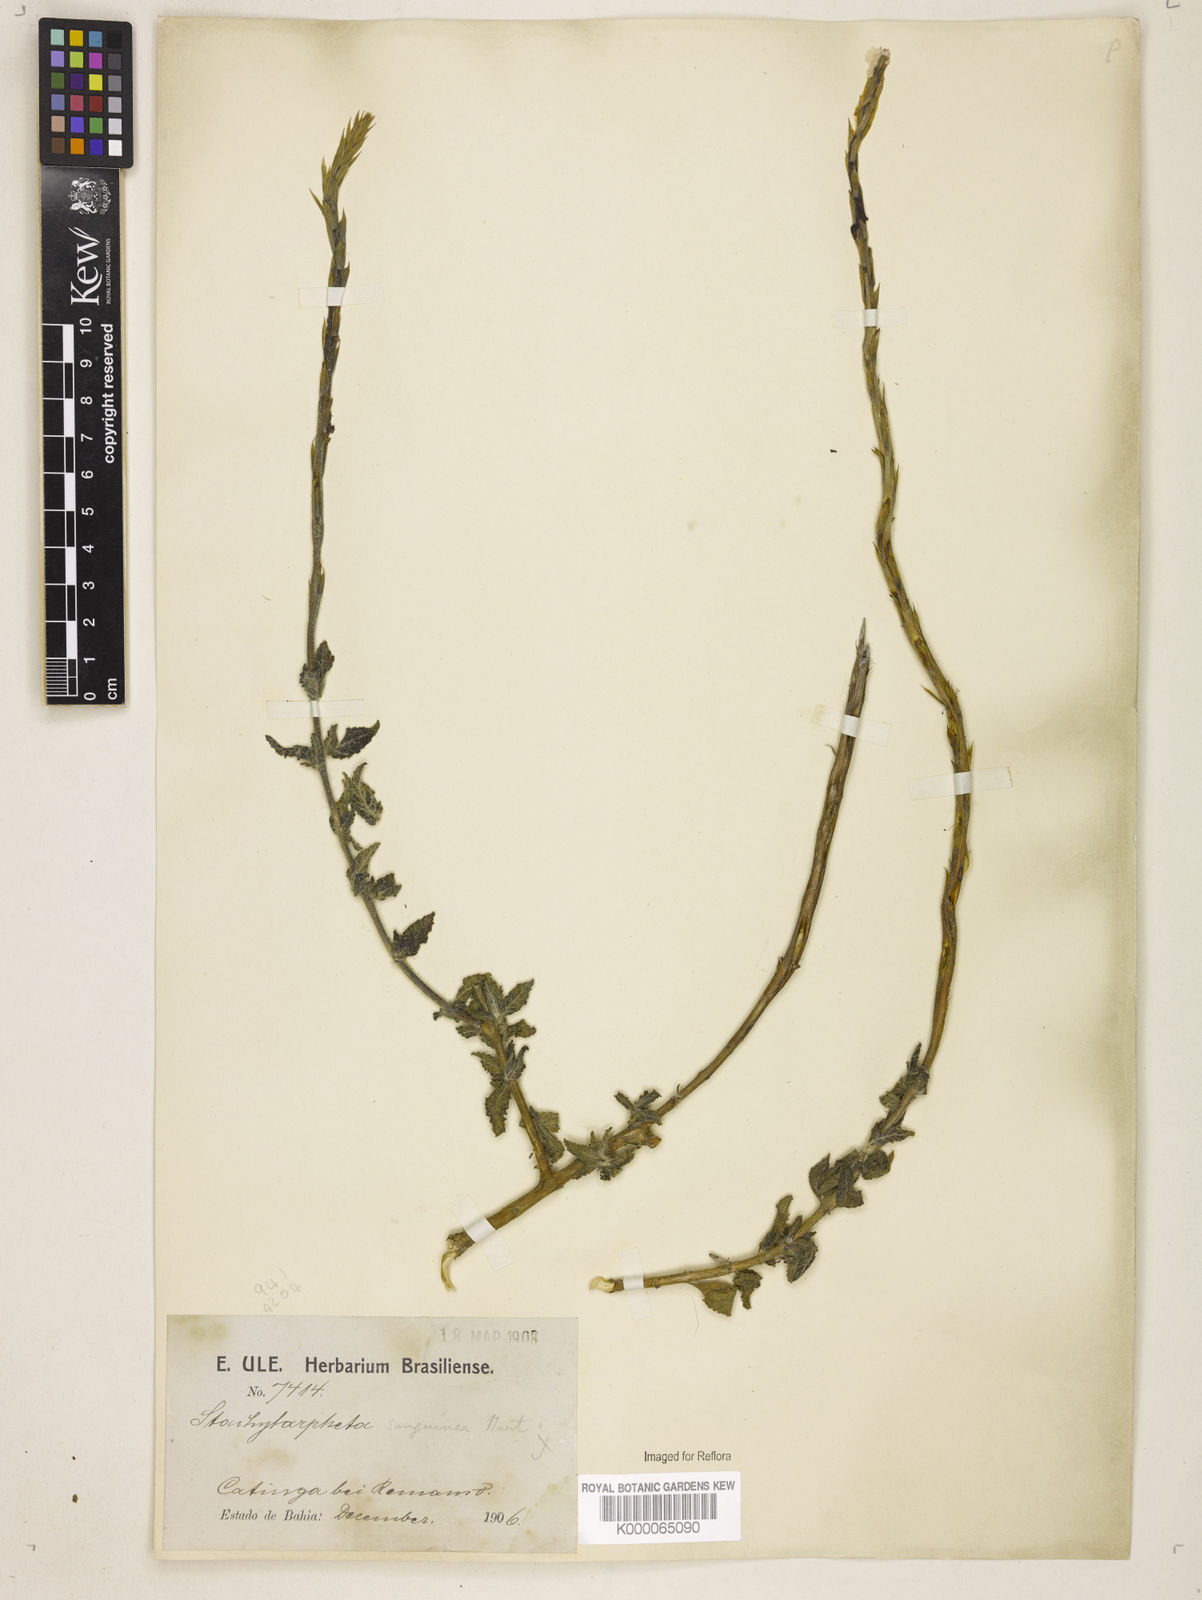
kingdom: Plantae
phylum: Tracheophyta
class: Magnoliopsida
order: Lamiales
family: Verbenaceae
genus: Stachytarpheta
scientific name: Stachytarpheta
